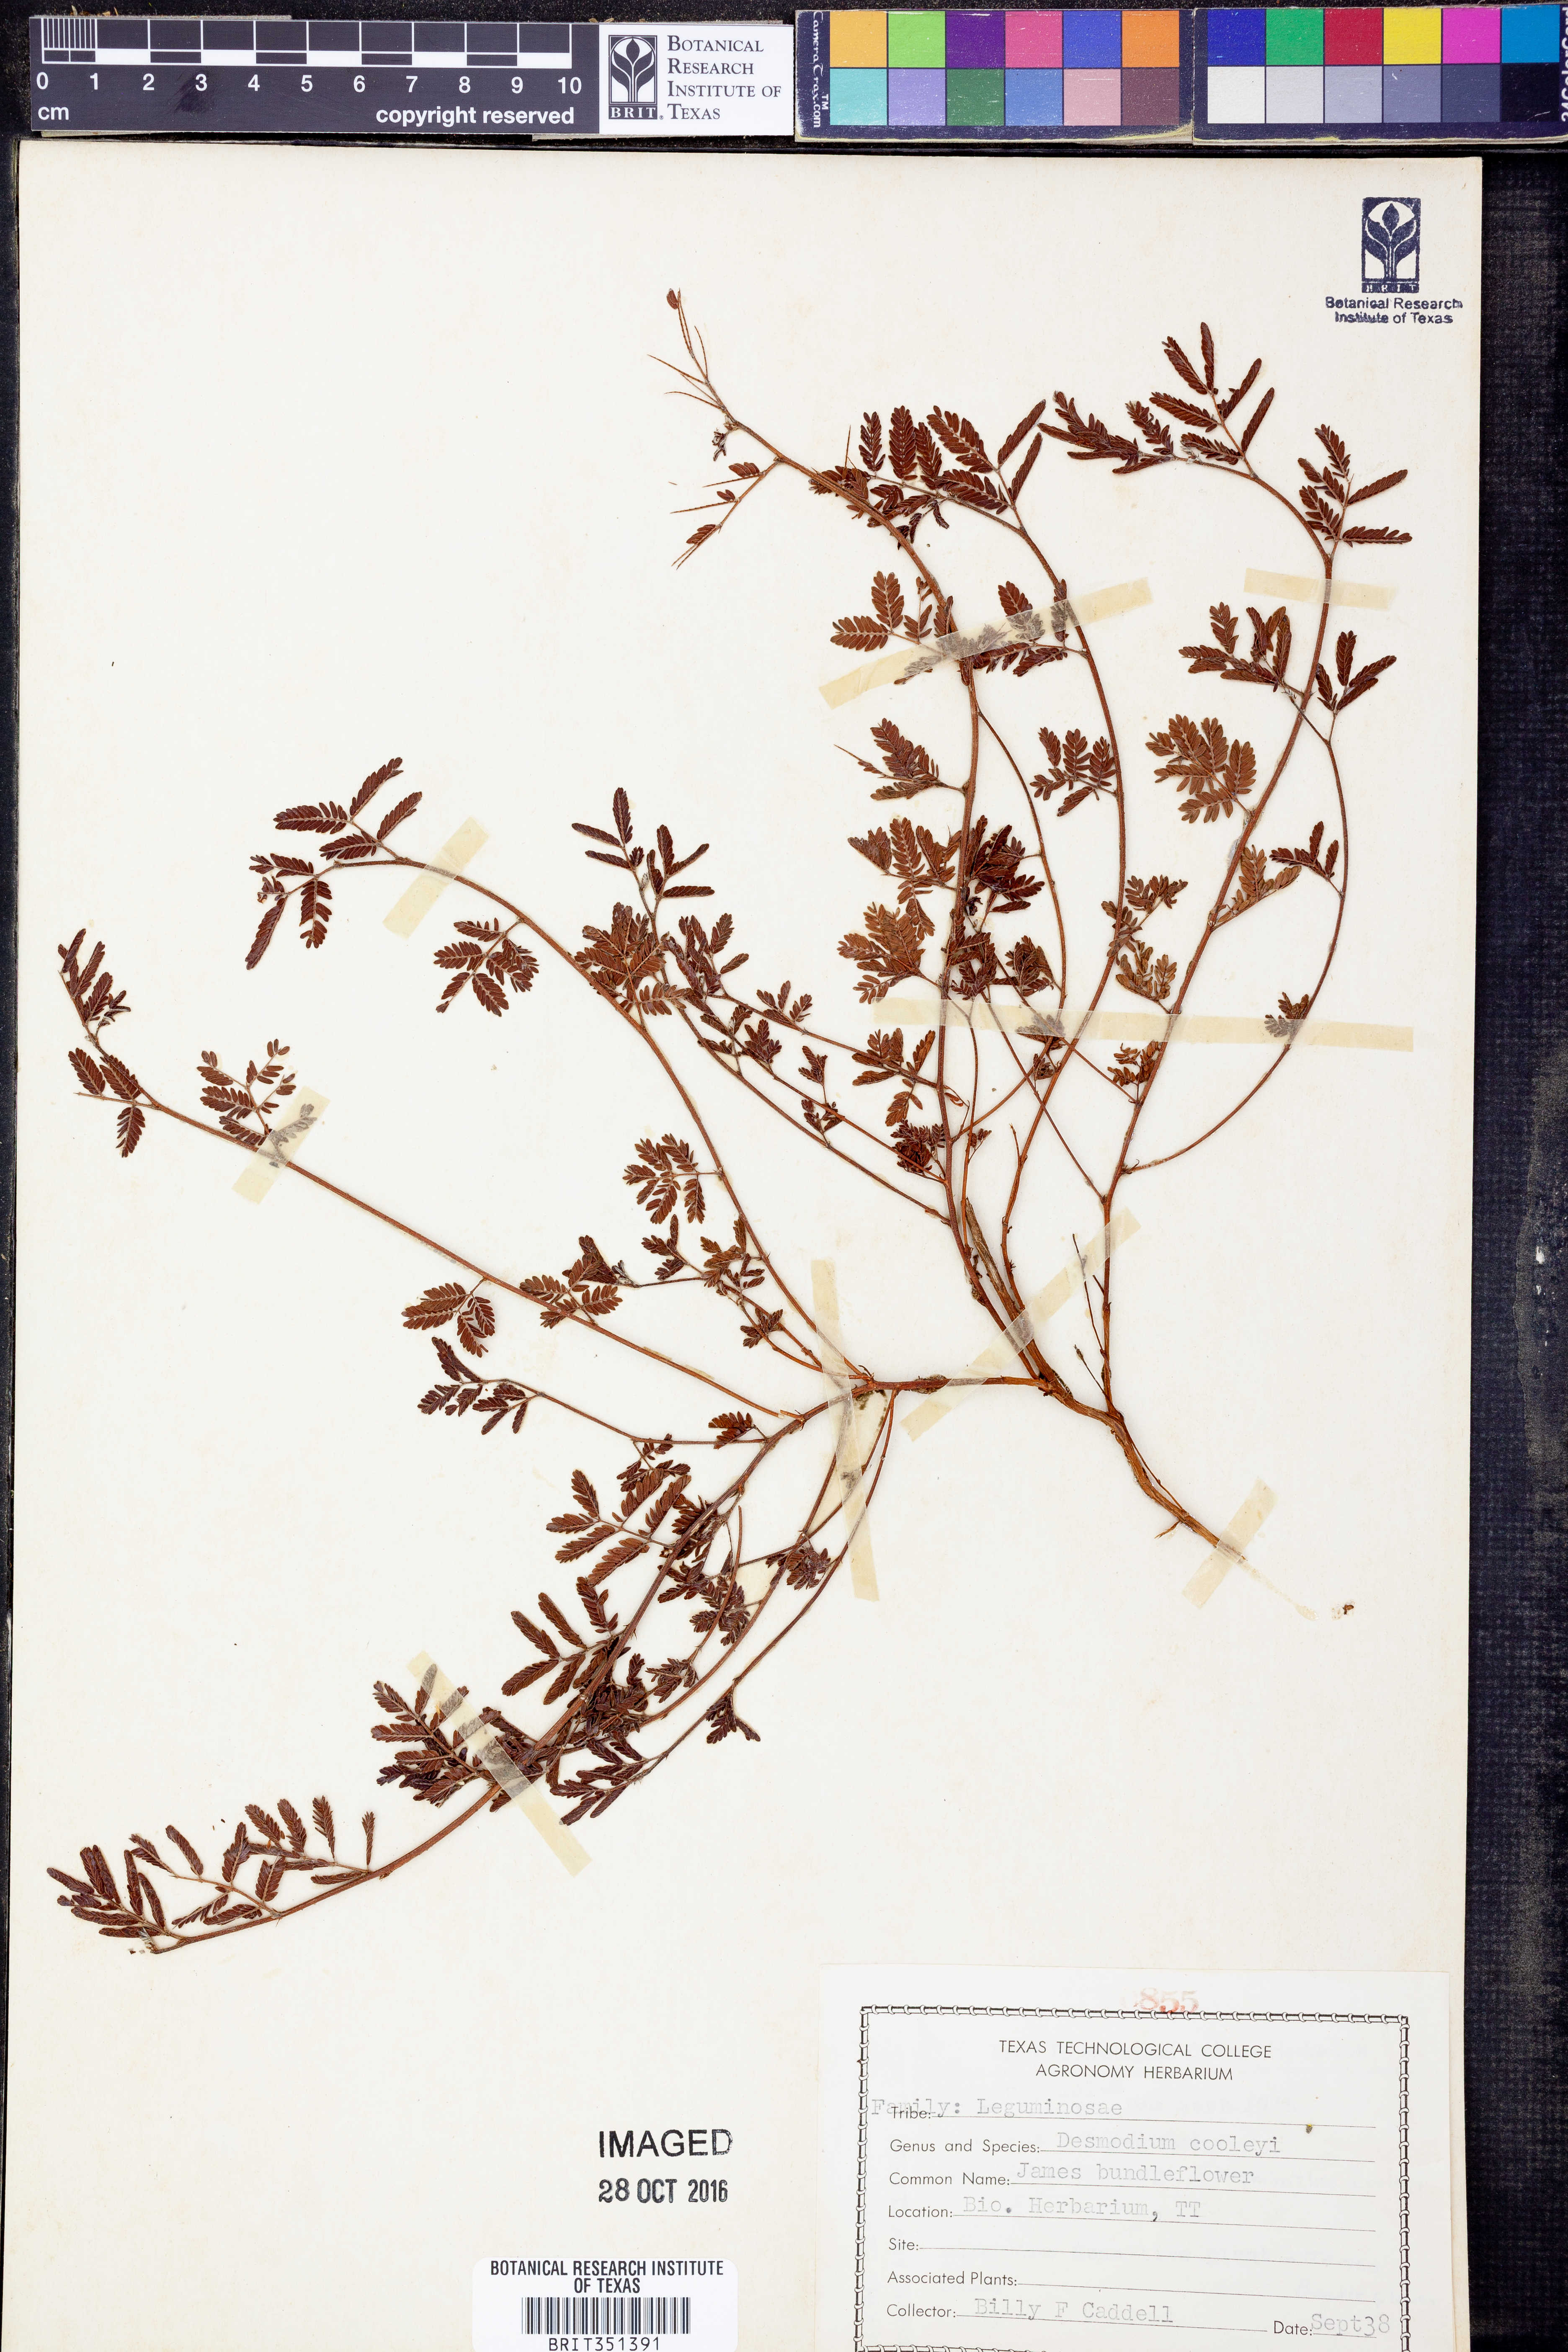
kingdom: Plantae
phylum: Tracheophyta
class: Magnoliopsida
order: Fabales
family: Fabaceae
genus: Desmanthus
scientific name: Desmanthus cooleyi
